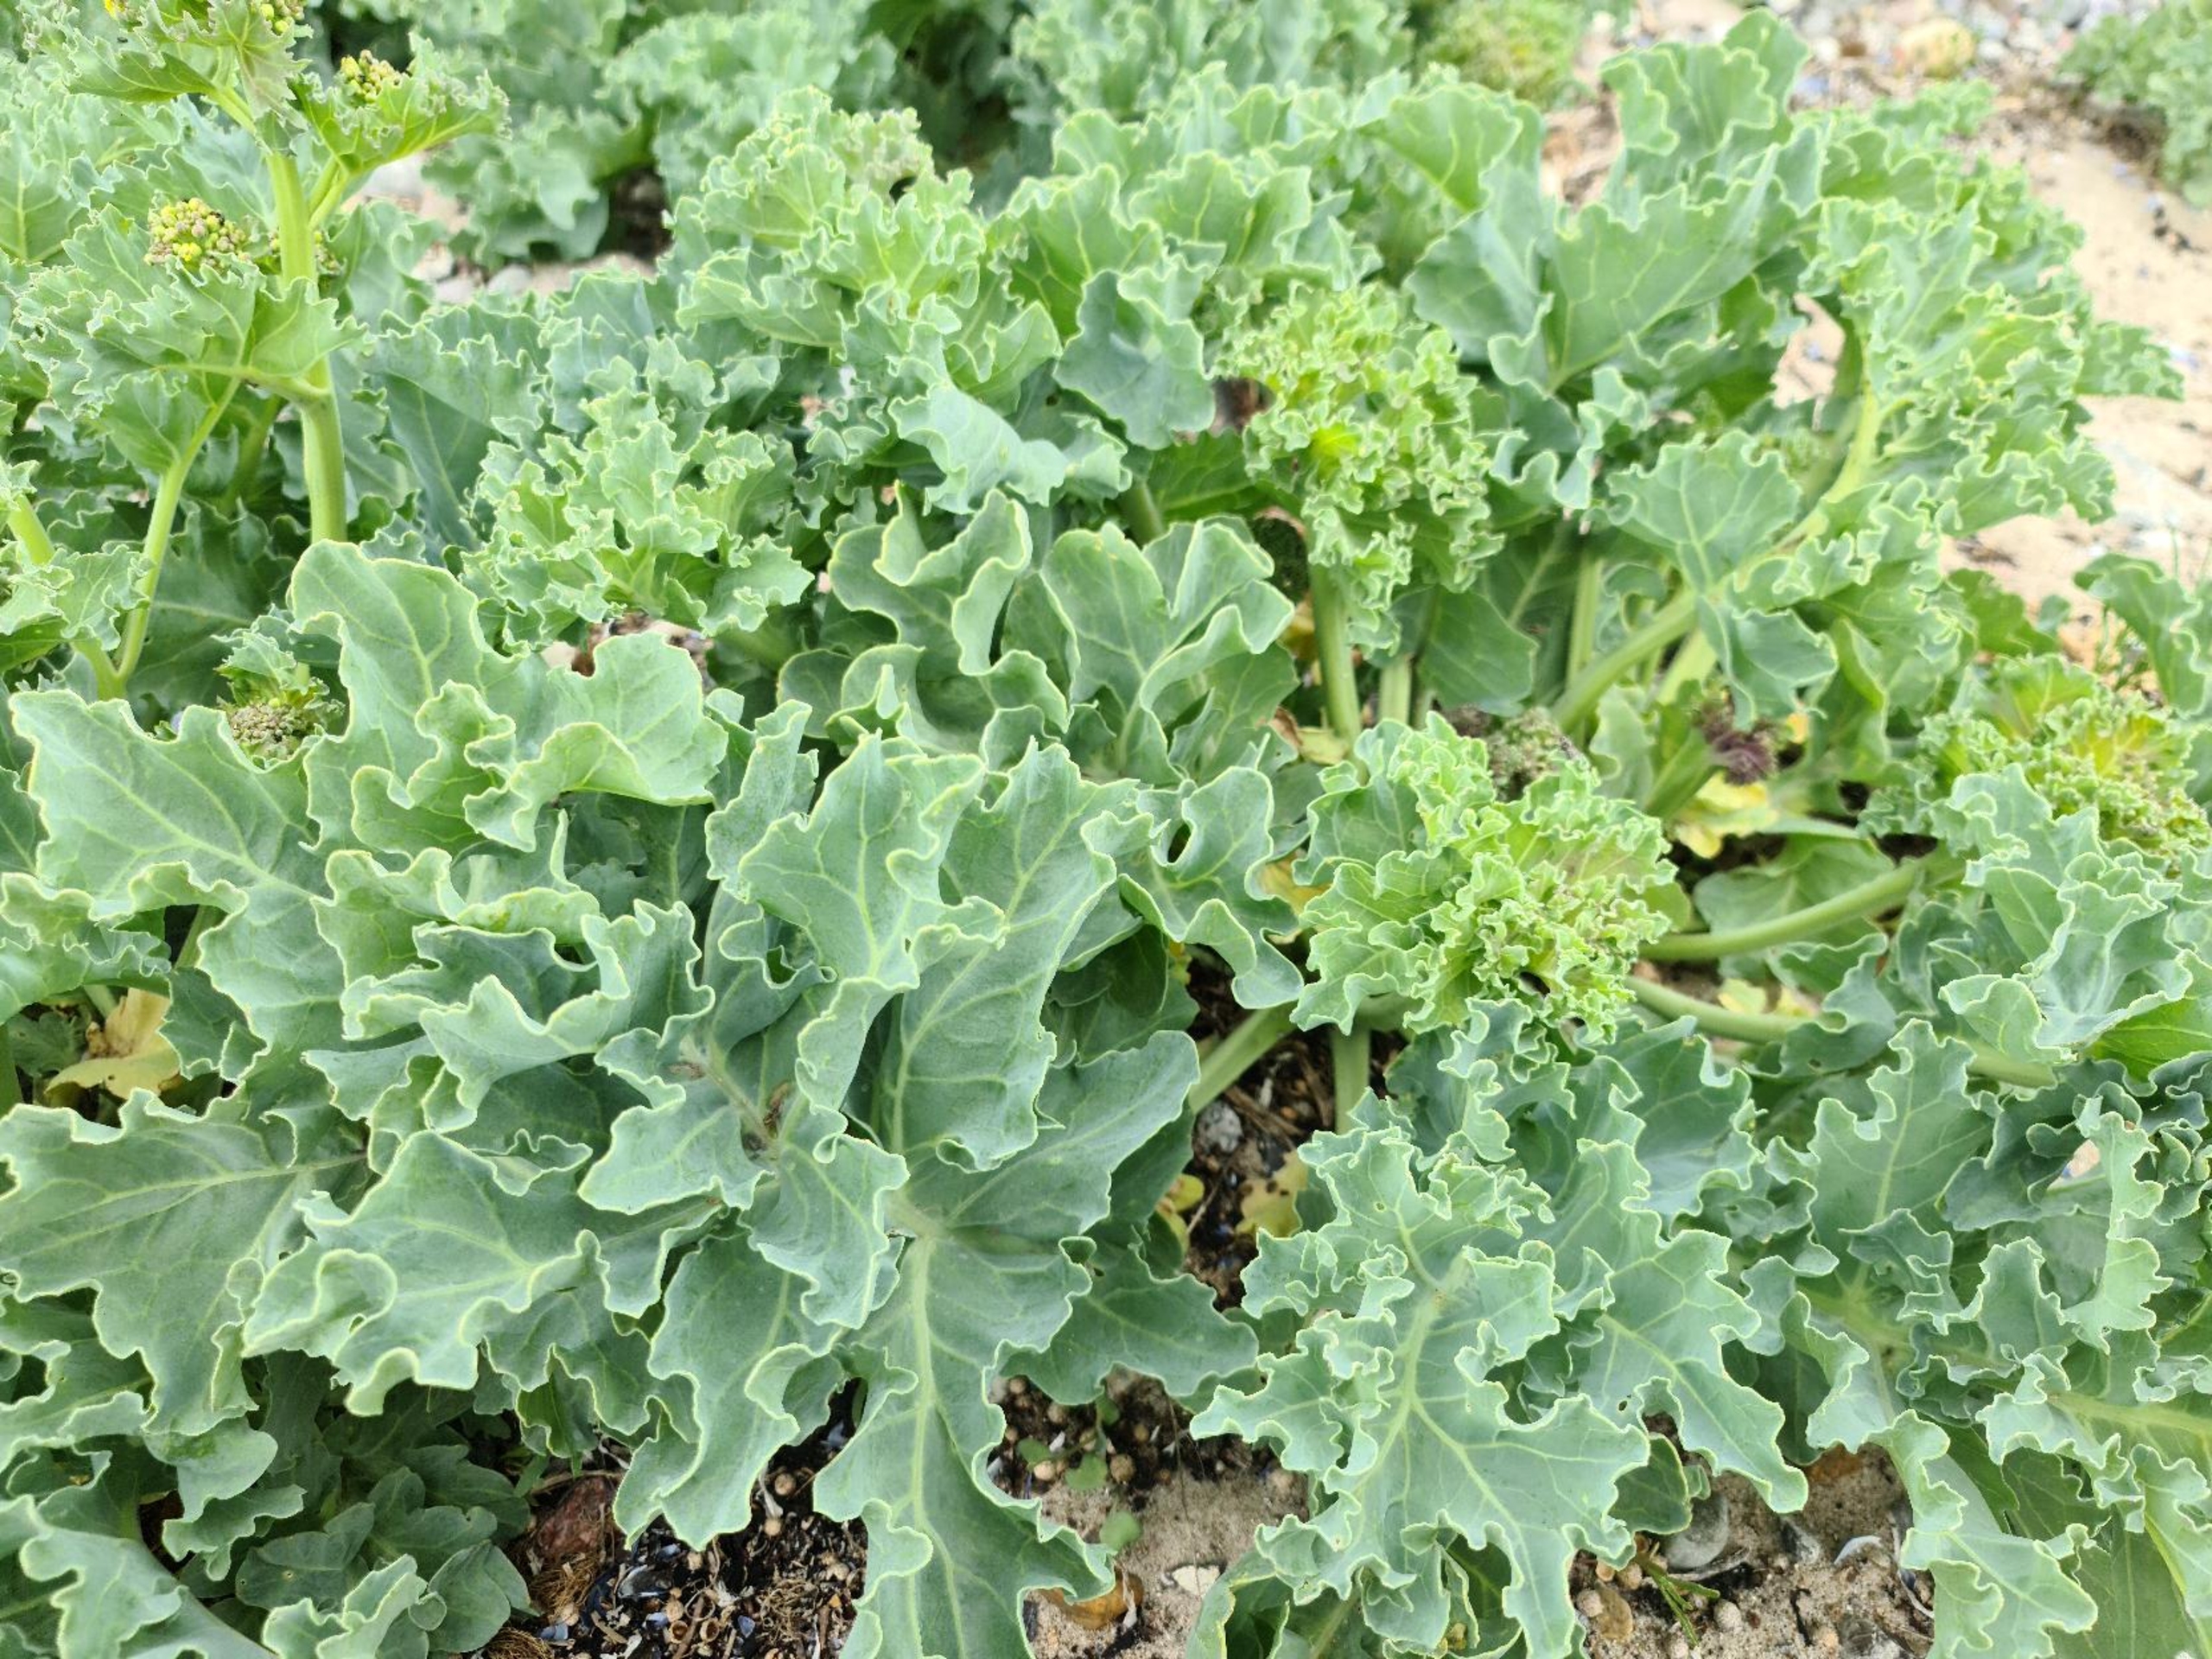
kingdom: Plantae
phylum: Tracheophyta
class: Magnoliopsida
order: Brassicales
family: Brassicaceae
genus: Crambe
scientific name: Crambe maritima
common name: Strandkål
